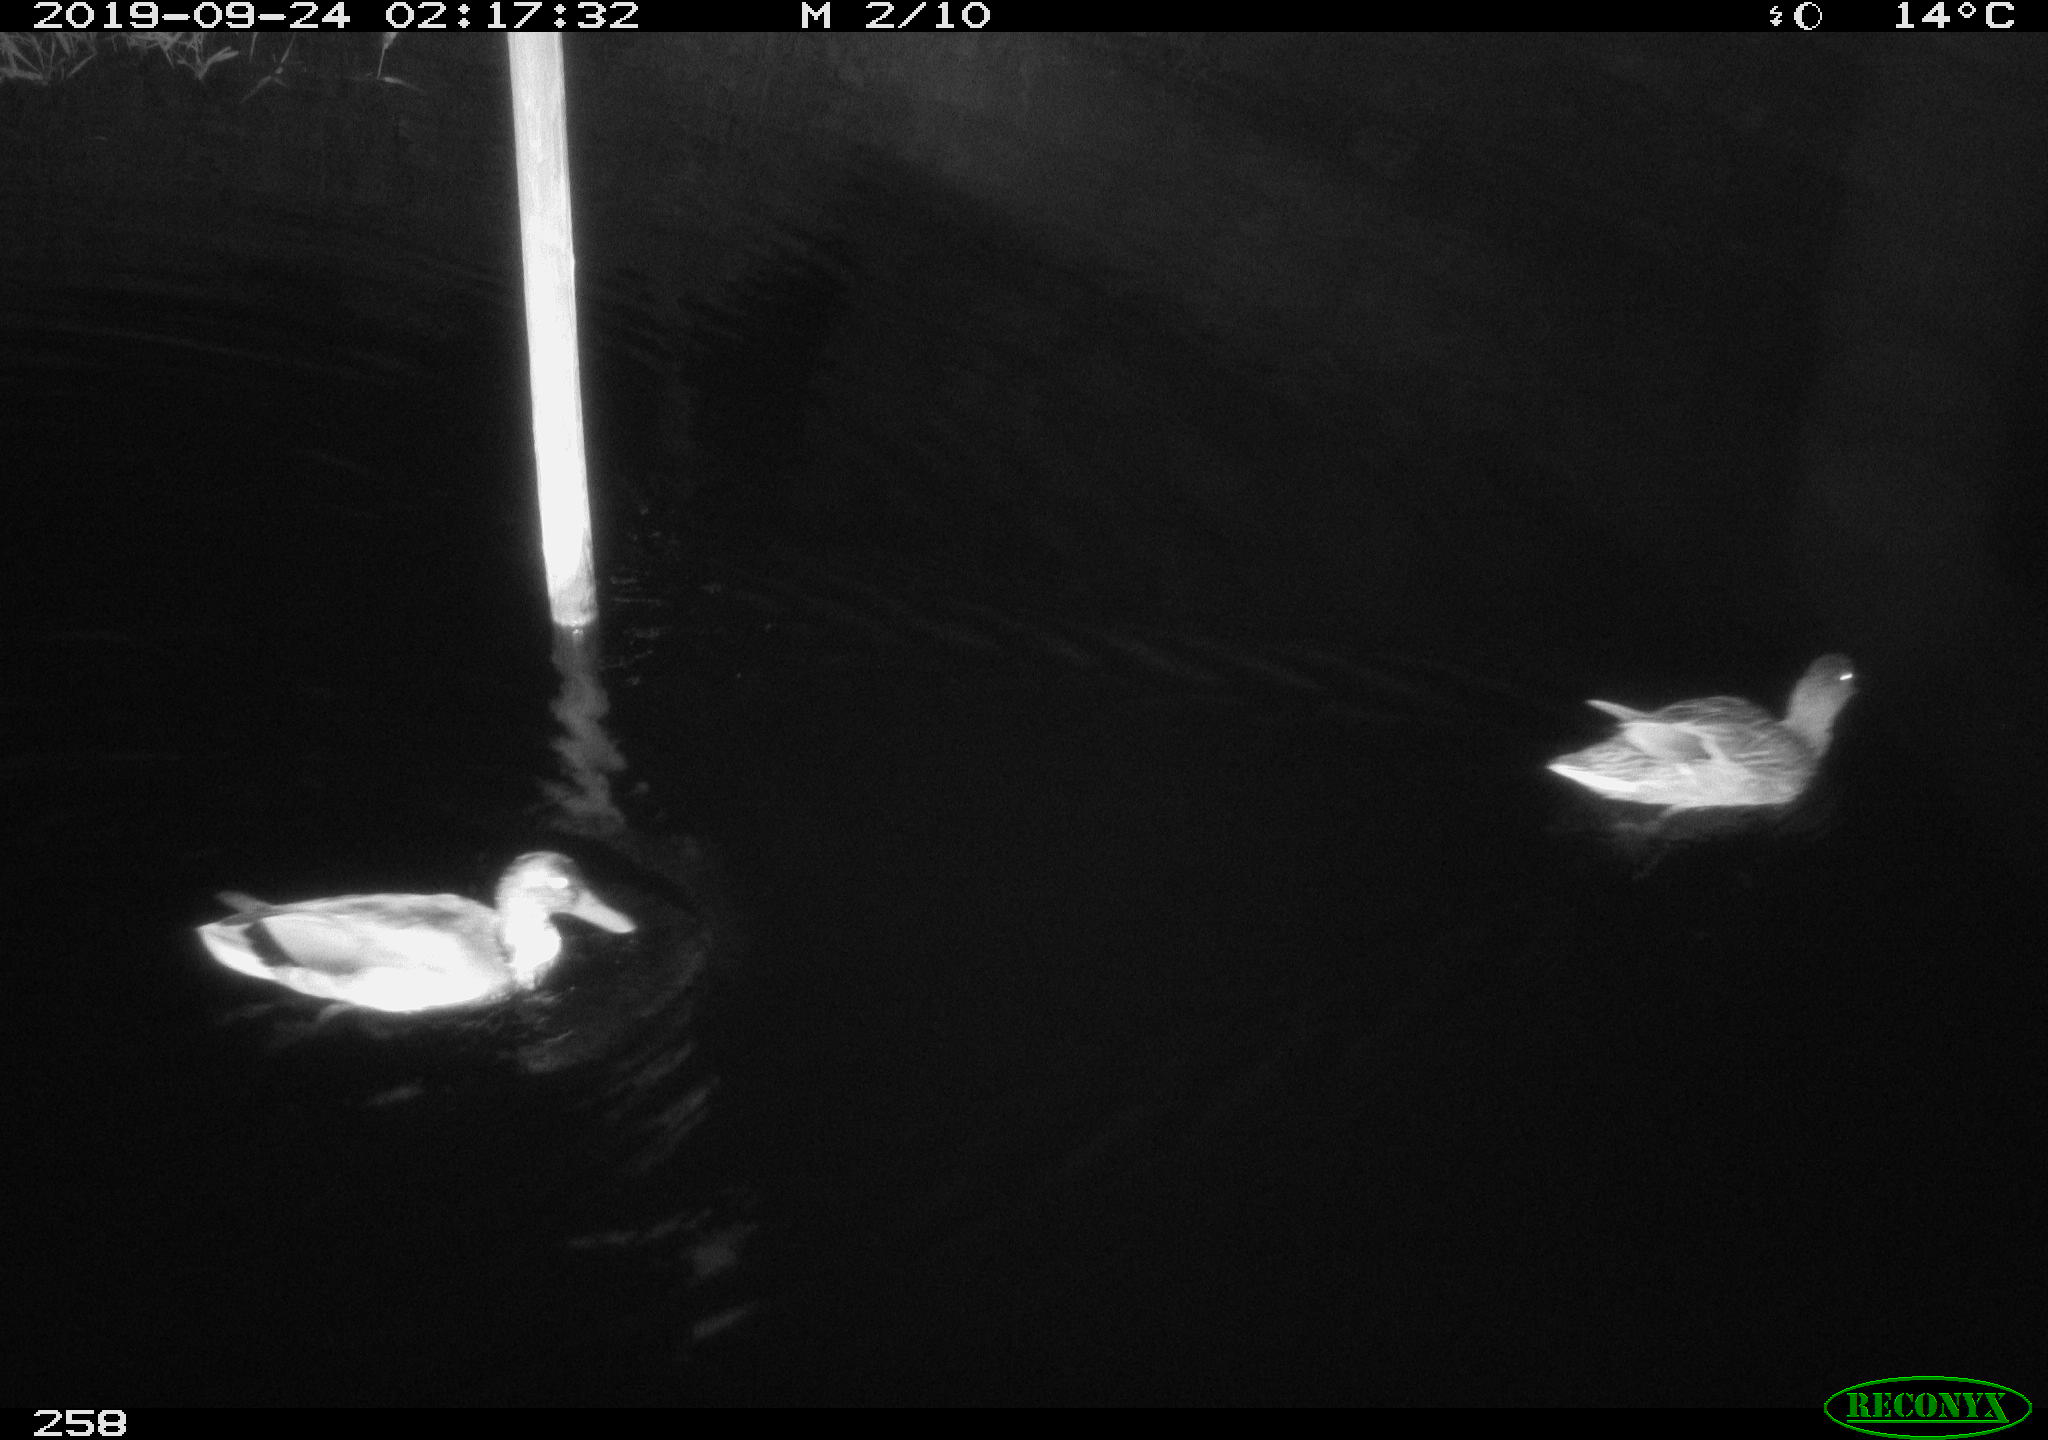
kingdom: Animalia
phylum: Chordata
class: Aves
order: Anseriformes
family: Anatidae
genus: Anas
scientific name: Anas platyrhynchos
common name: Mallard
